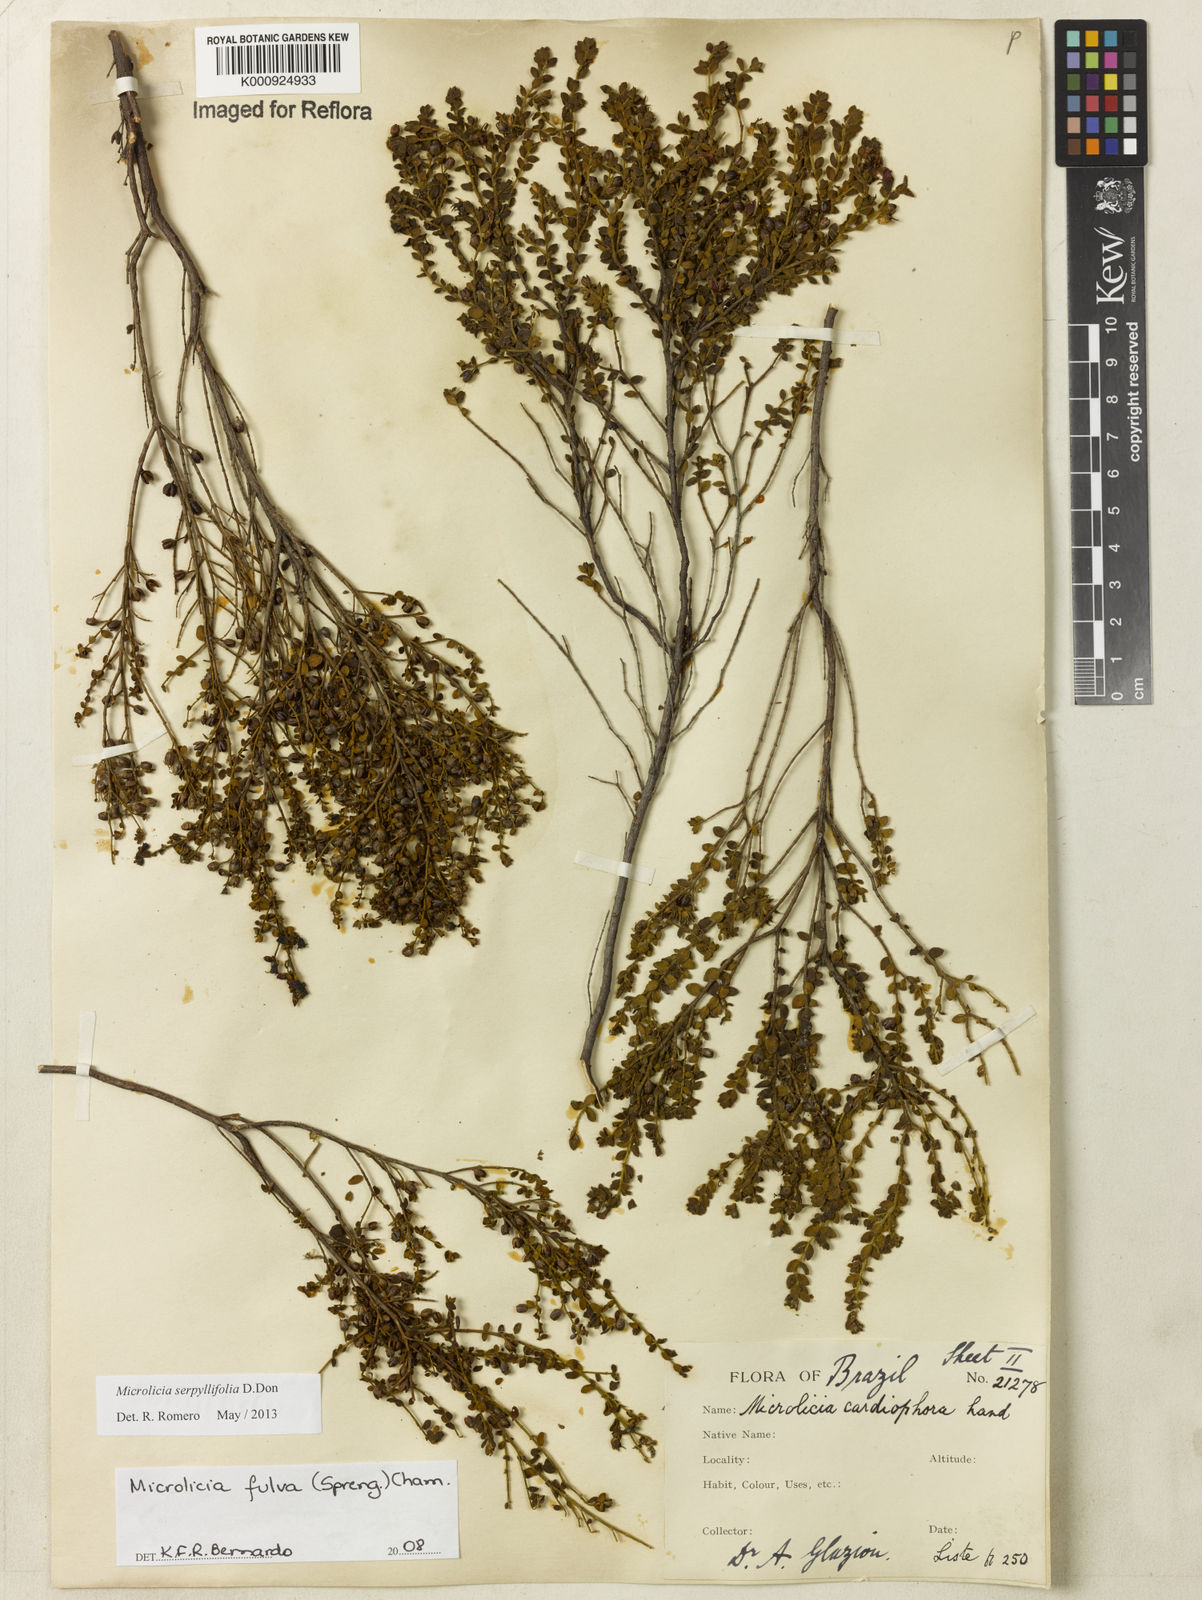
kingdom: Plantae
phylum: Tracheophyta
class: Magnoliopsida
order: Myrtales
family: Melastomataceae
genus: Microlicia
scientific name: Microlicia fulva
